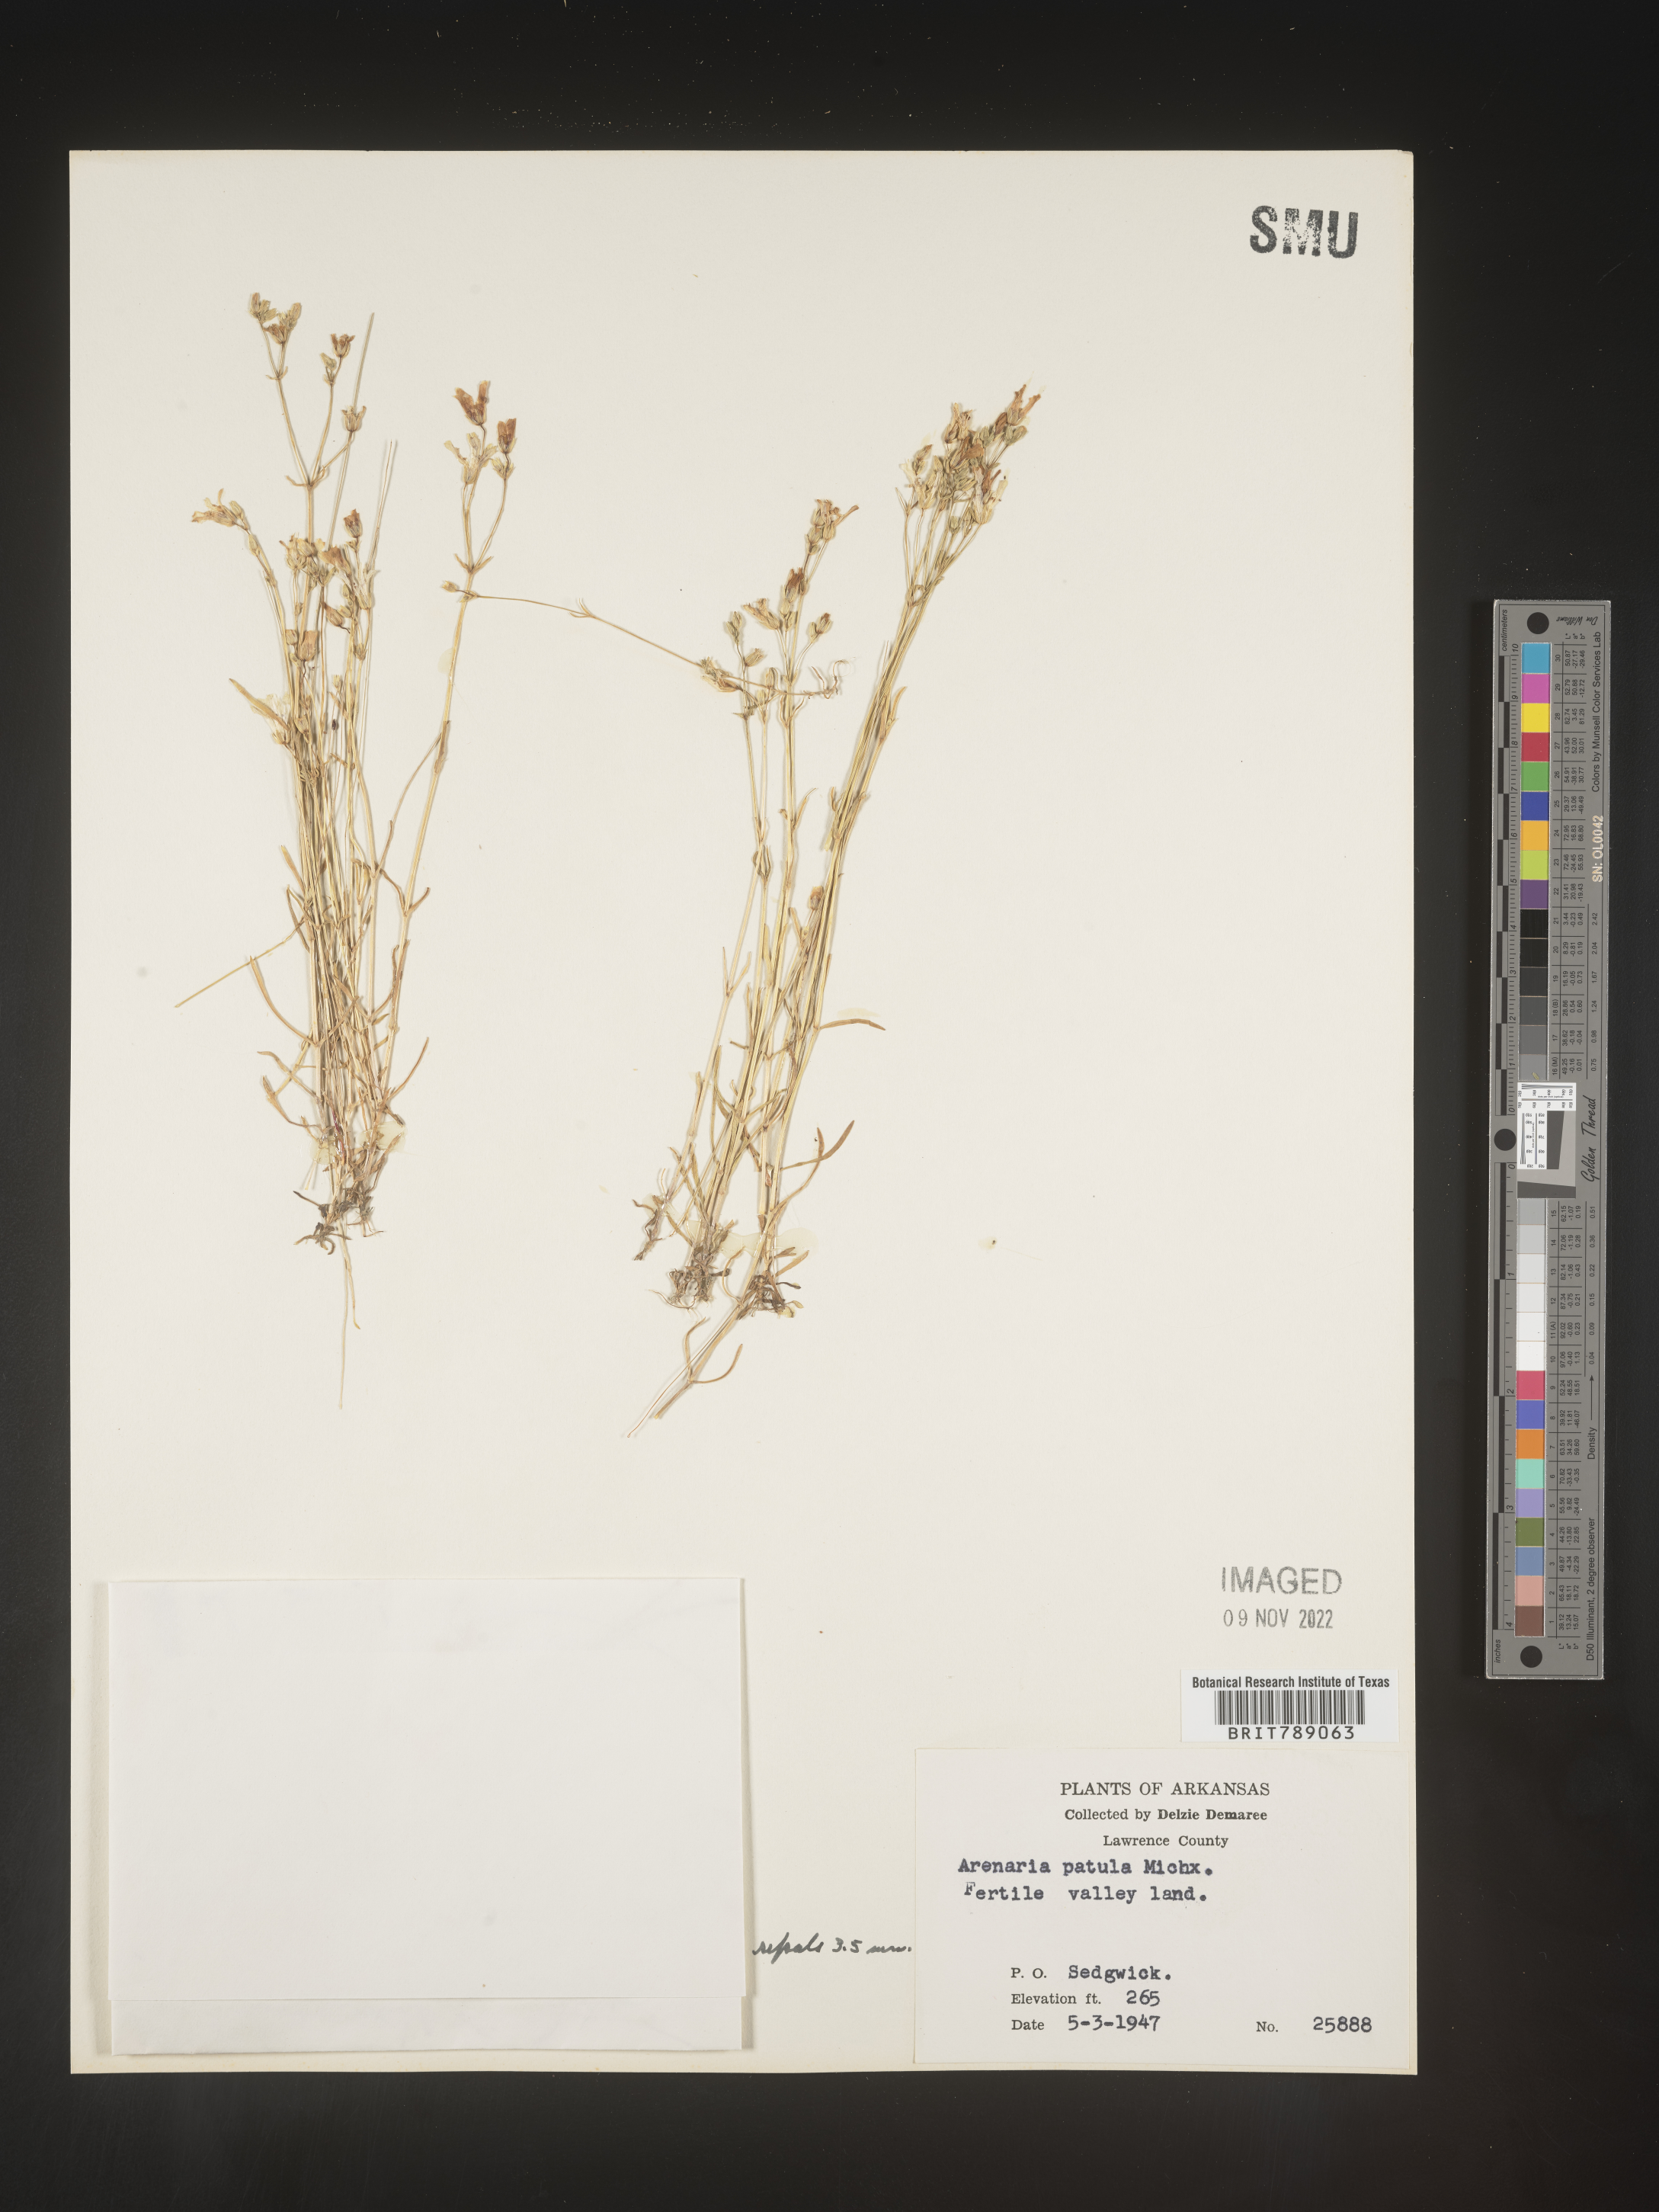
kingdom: Plantae
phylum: Tracheophyta
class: Magnoliopsida
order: Caryophyllales
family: Caryophyllaceae
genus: Mononeuria
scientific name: Mononeuria patula
